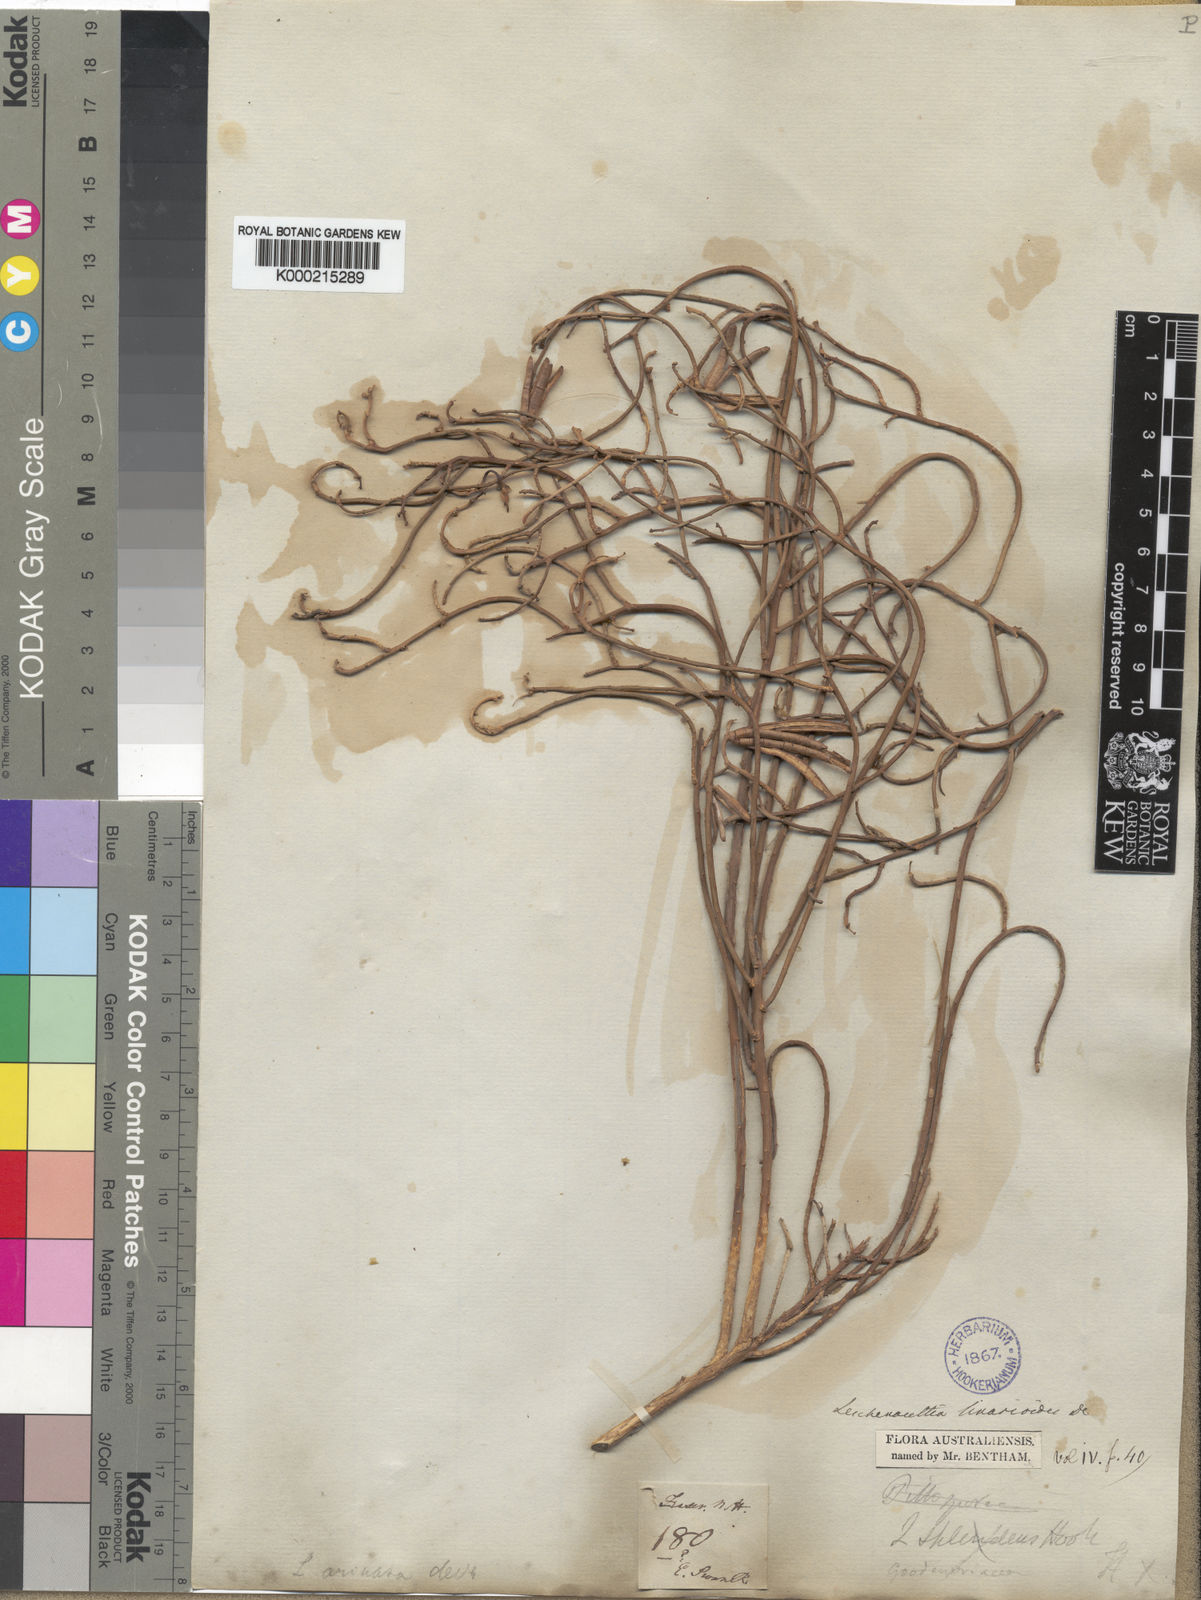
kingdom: Plantae
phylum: Tracheophyta
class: Magnoliopsida
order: Asterales
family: Goodeniaceae
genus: Leschenaultia
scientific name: Leschenaultia
